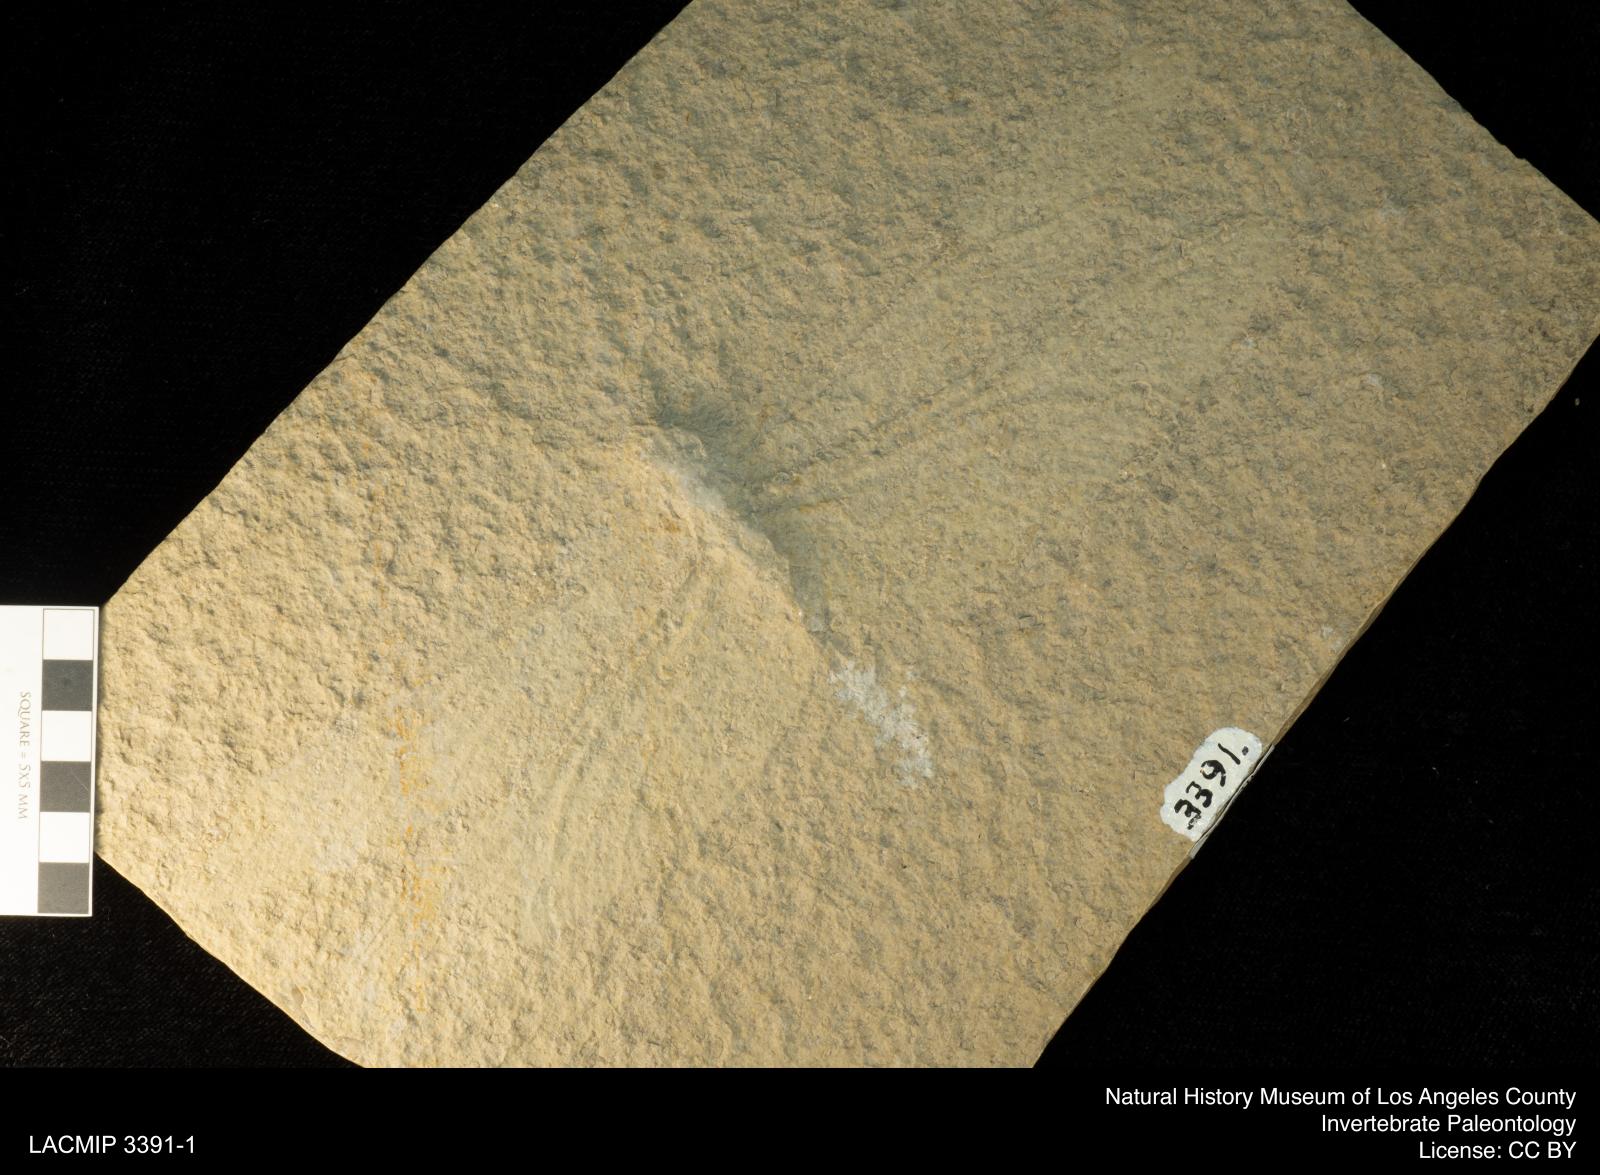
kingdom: Animalia
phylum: Arthropoda
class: Insecta
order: Odonata
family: Cymatophlebiidae
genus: Cymatophlebia
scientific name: Cymatophlebia Libellula longialata
